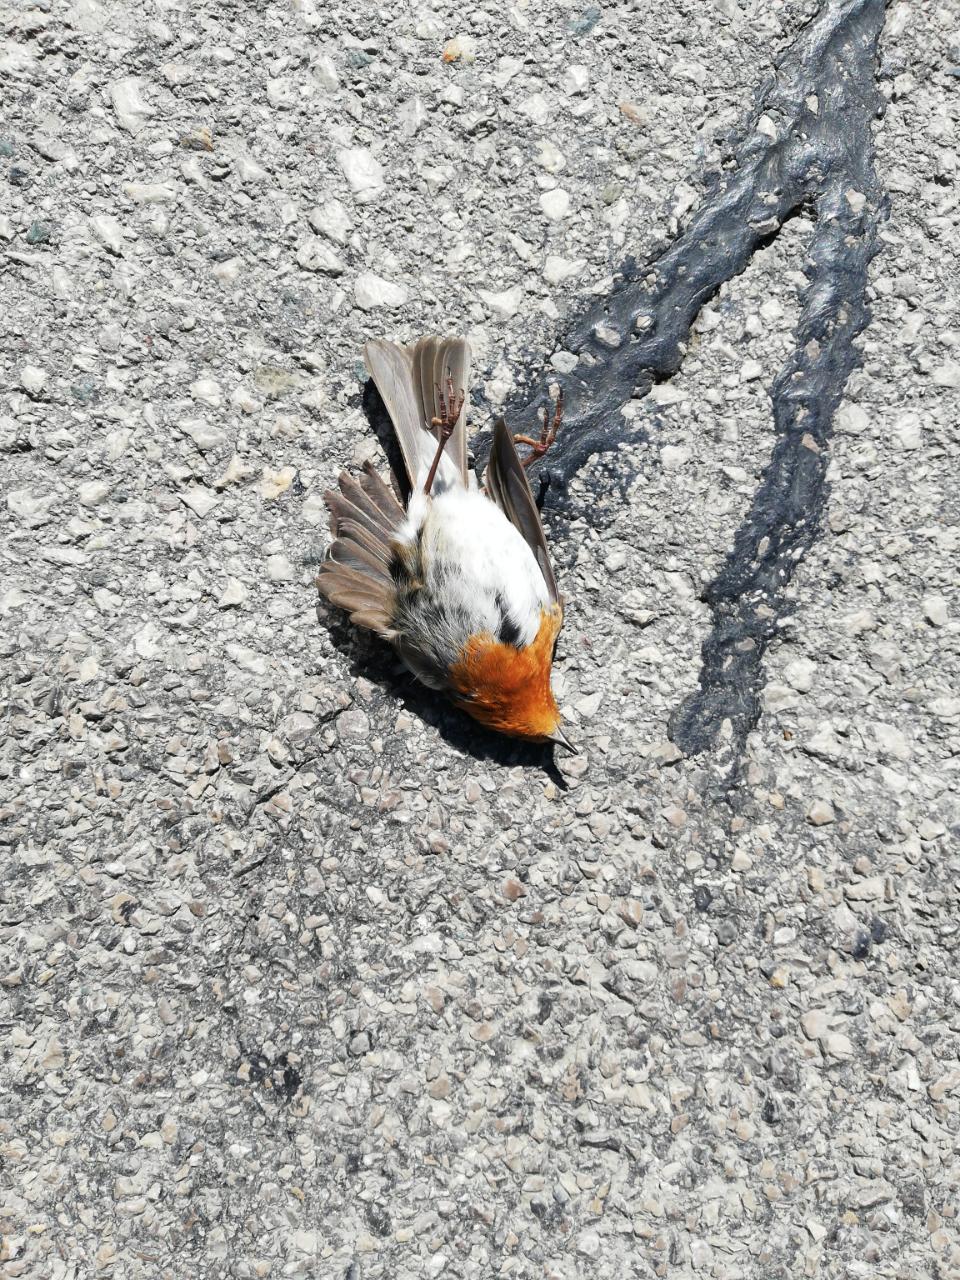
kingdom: Animalia
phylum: Chordata
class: Aves
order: Passeriformes
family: Muscicapidae
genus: Erithacus
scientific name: Erithacus rubecula
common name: European robin
